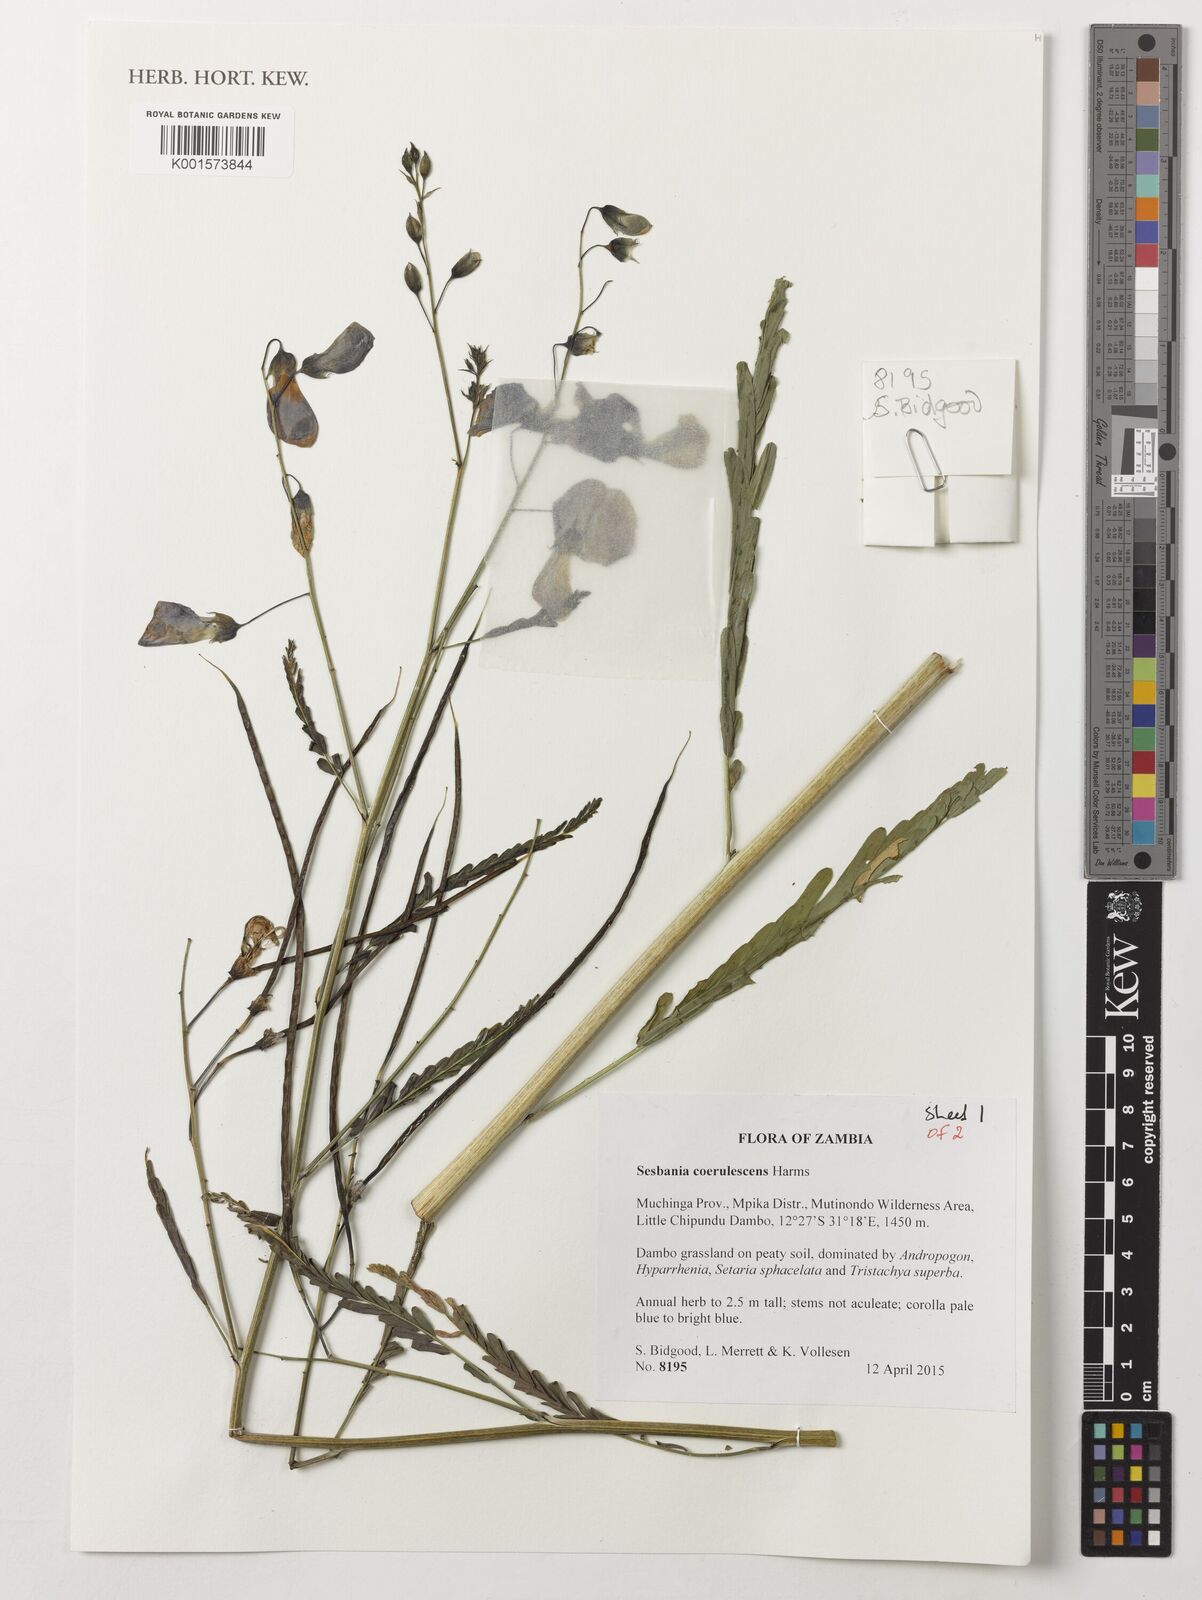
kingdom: Plantae
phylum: Tracheophyta
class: Magnoliopsida
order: Fabales
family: Fabaceae
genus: Sesbania
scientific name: Sesbania coerulescens
